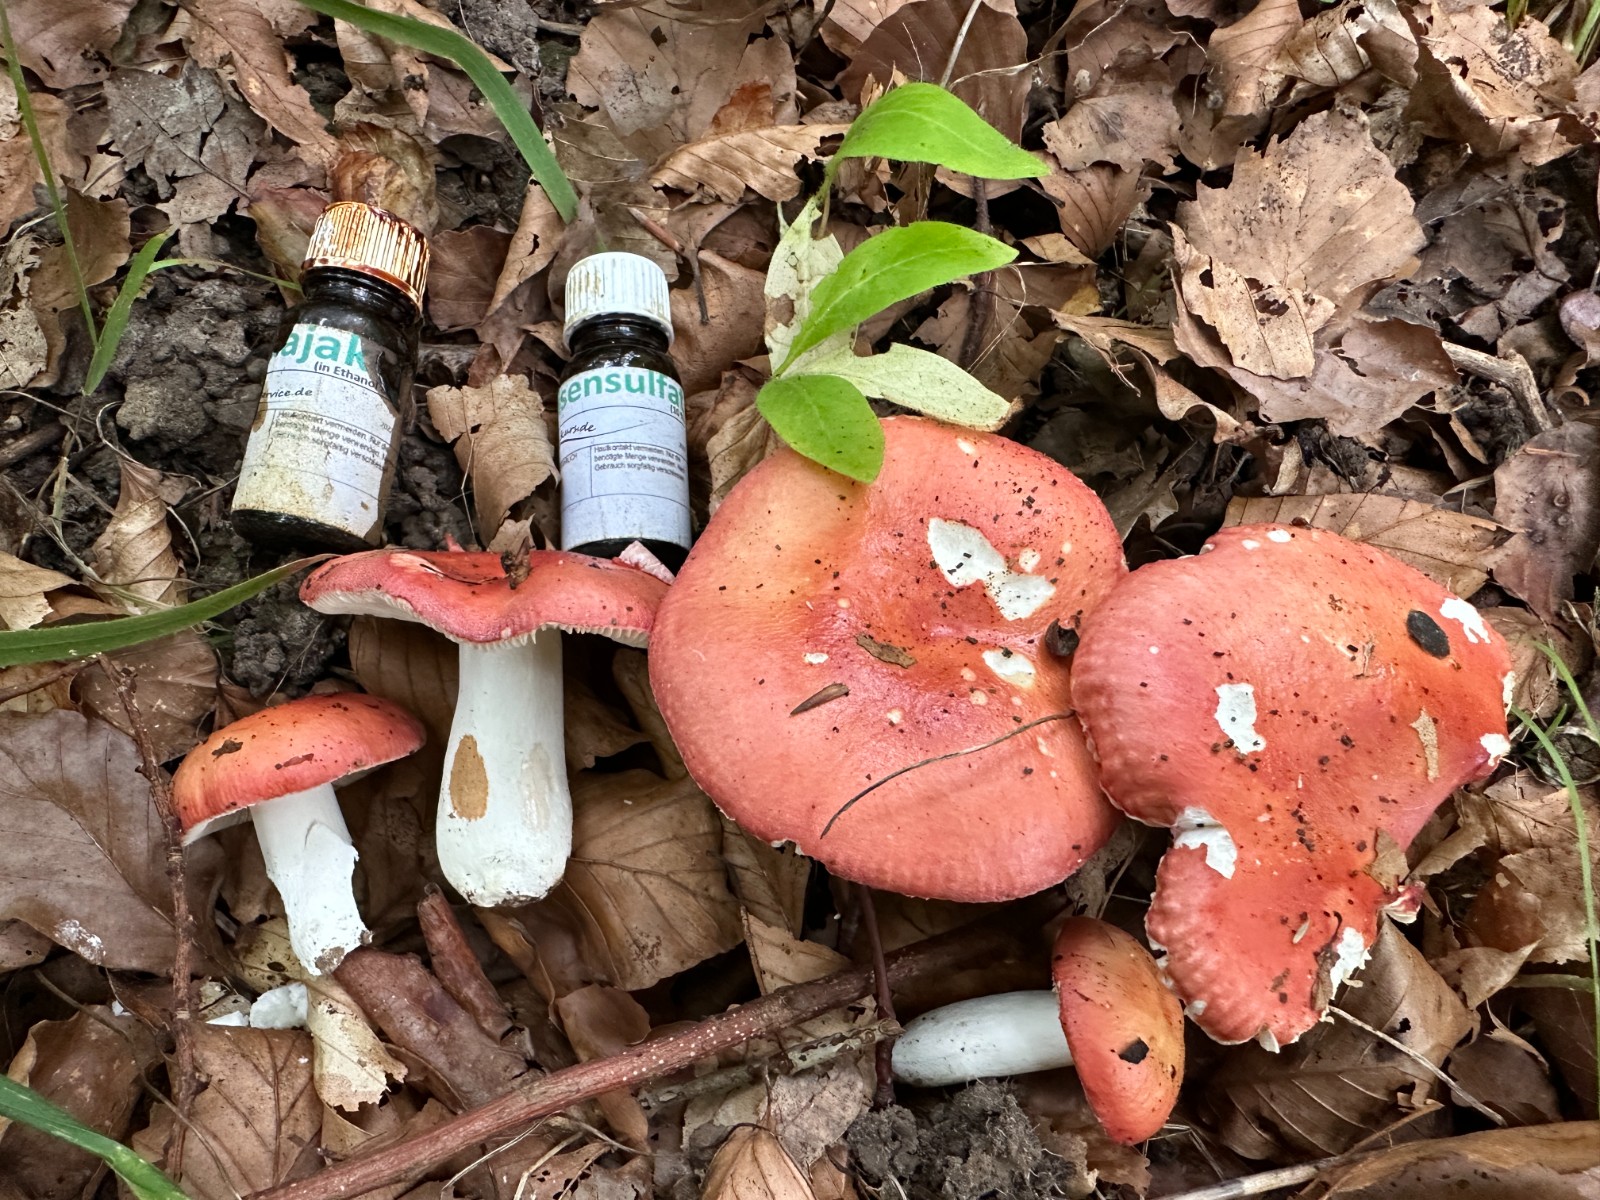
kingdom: Fungi
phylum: Basidiomycota
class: Agaricomycetes
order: Russulales
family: Russulaceae
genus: Russula
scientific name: Russula pseudointegra
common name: cinnoberrød skørhat
